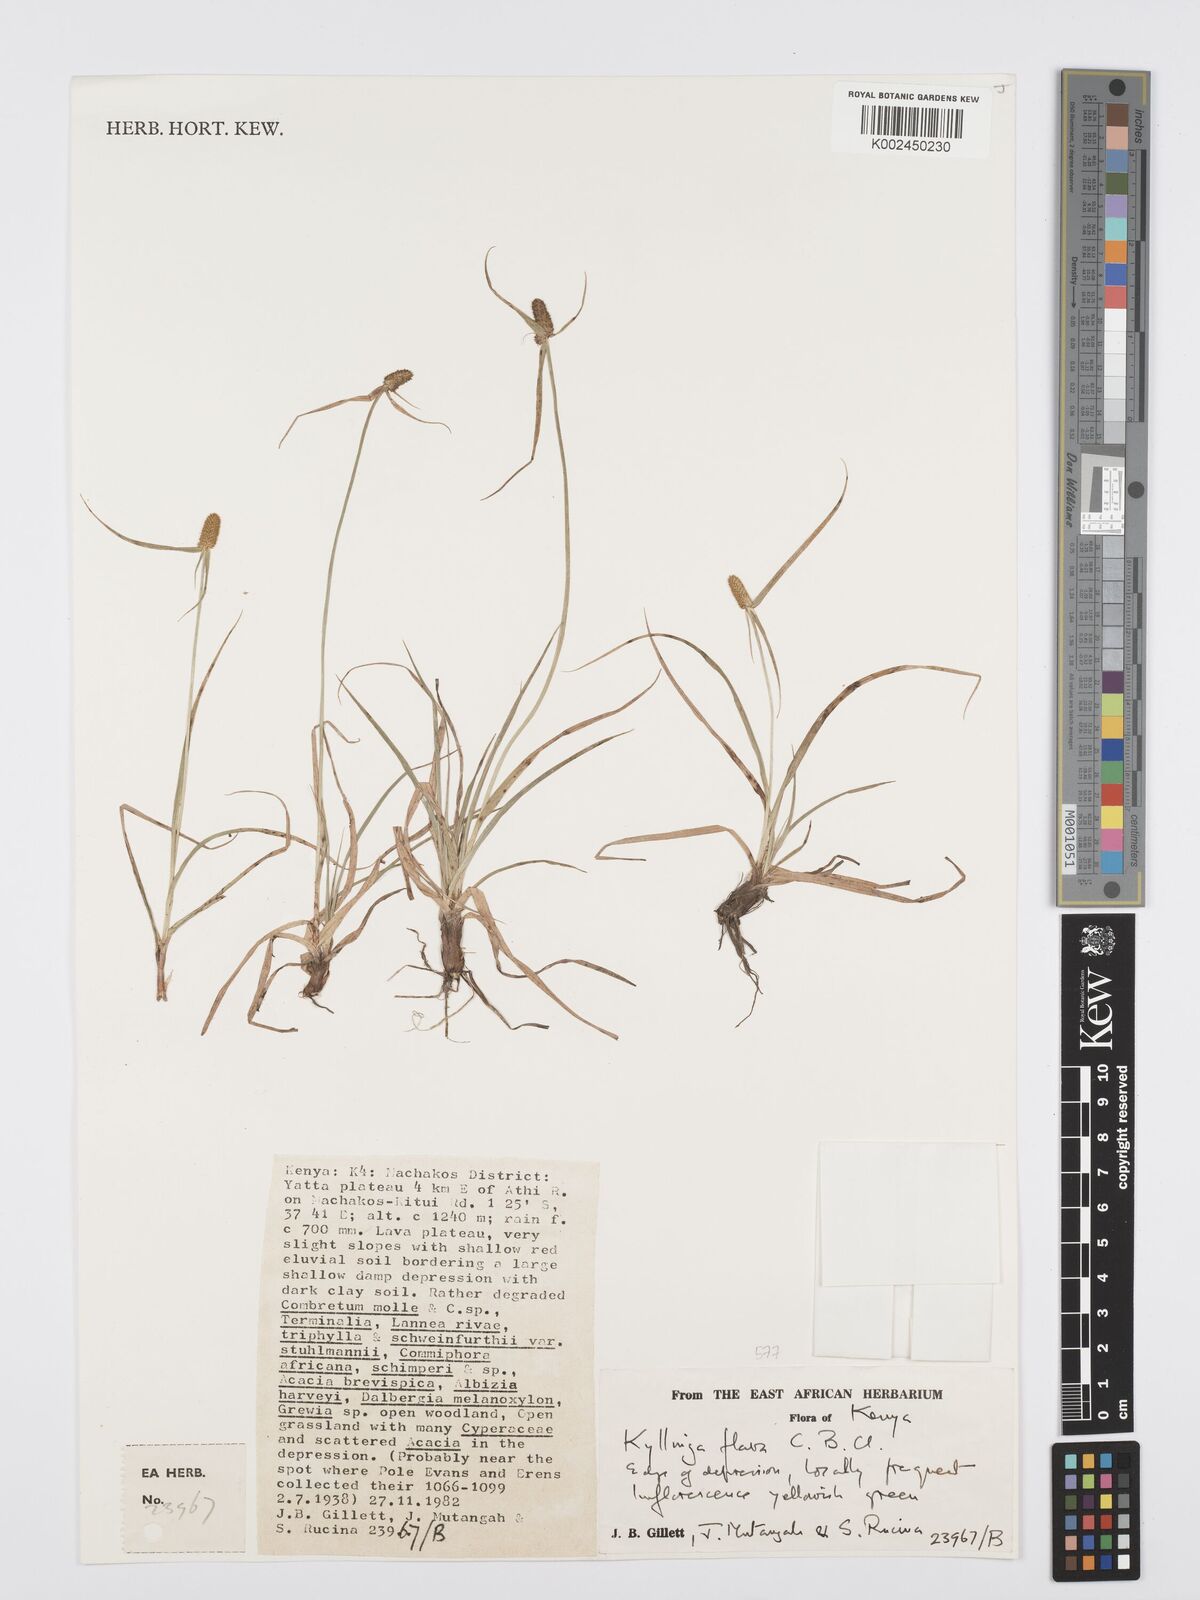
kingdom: Plantae
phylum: Tracheophyta
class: Liliopsida
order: Poales
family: Cyperaceae
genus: Cyperus
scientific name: Cyperus
